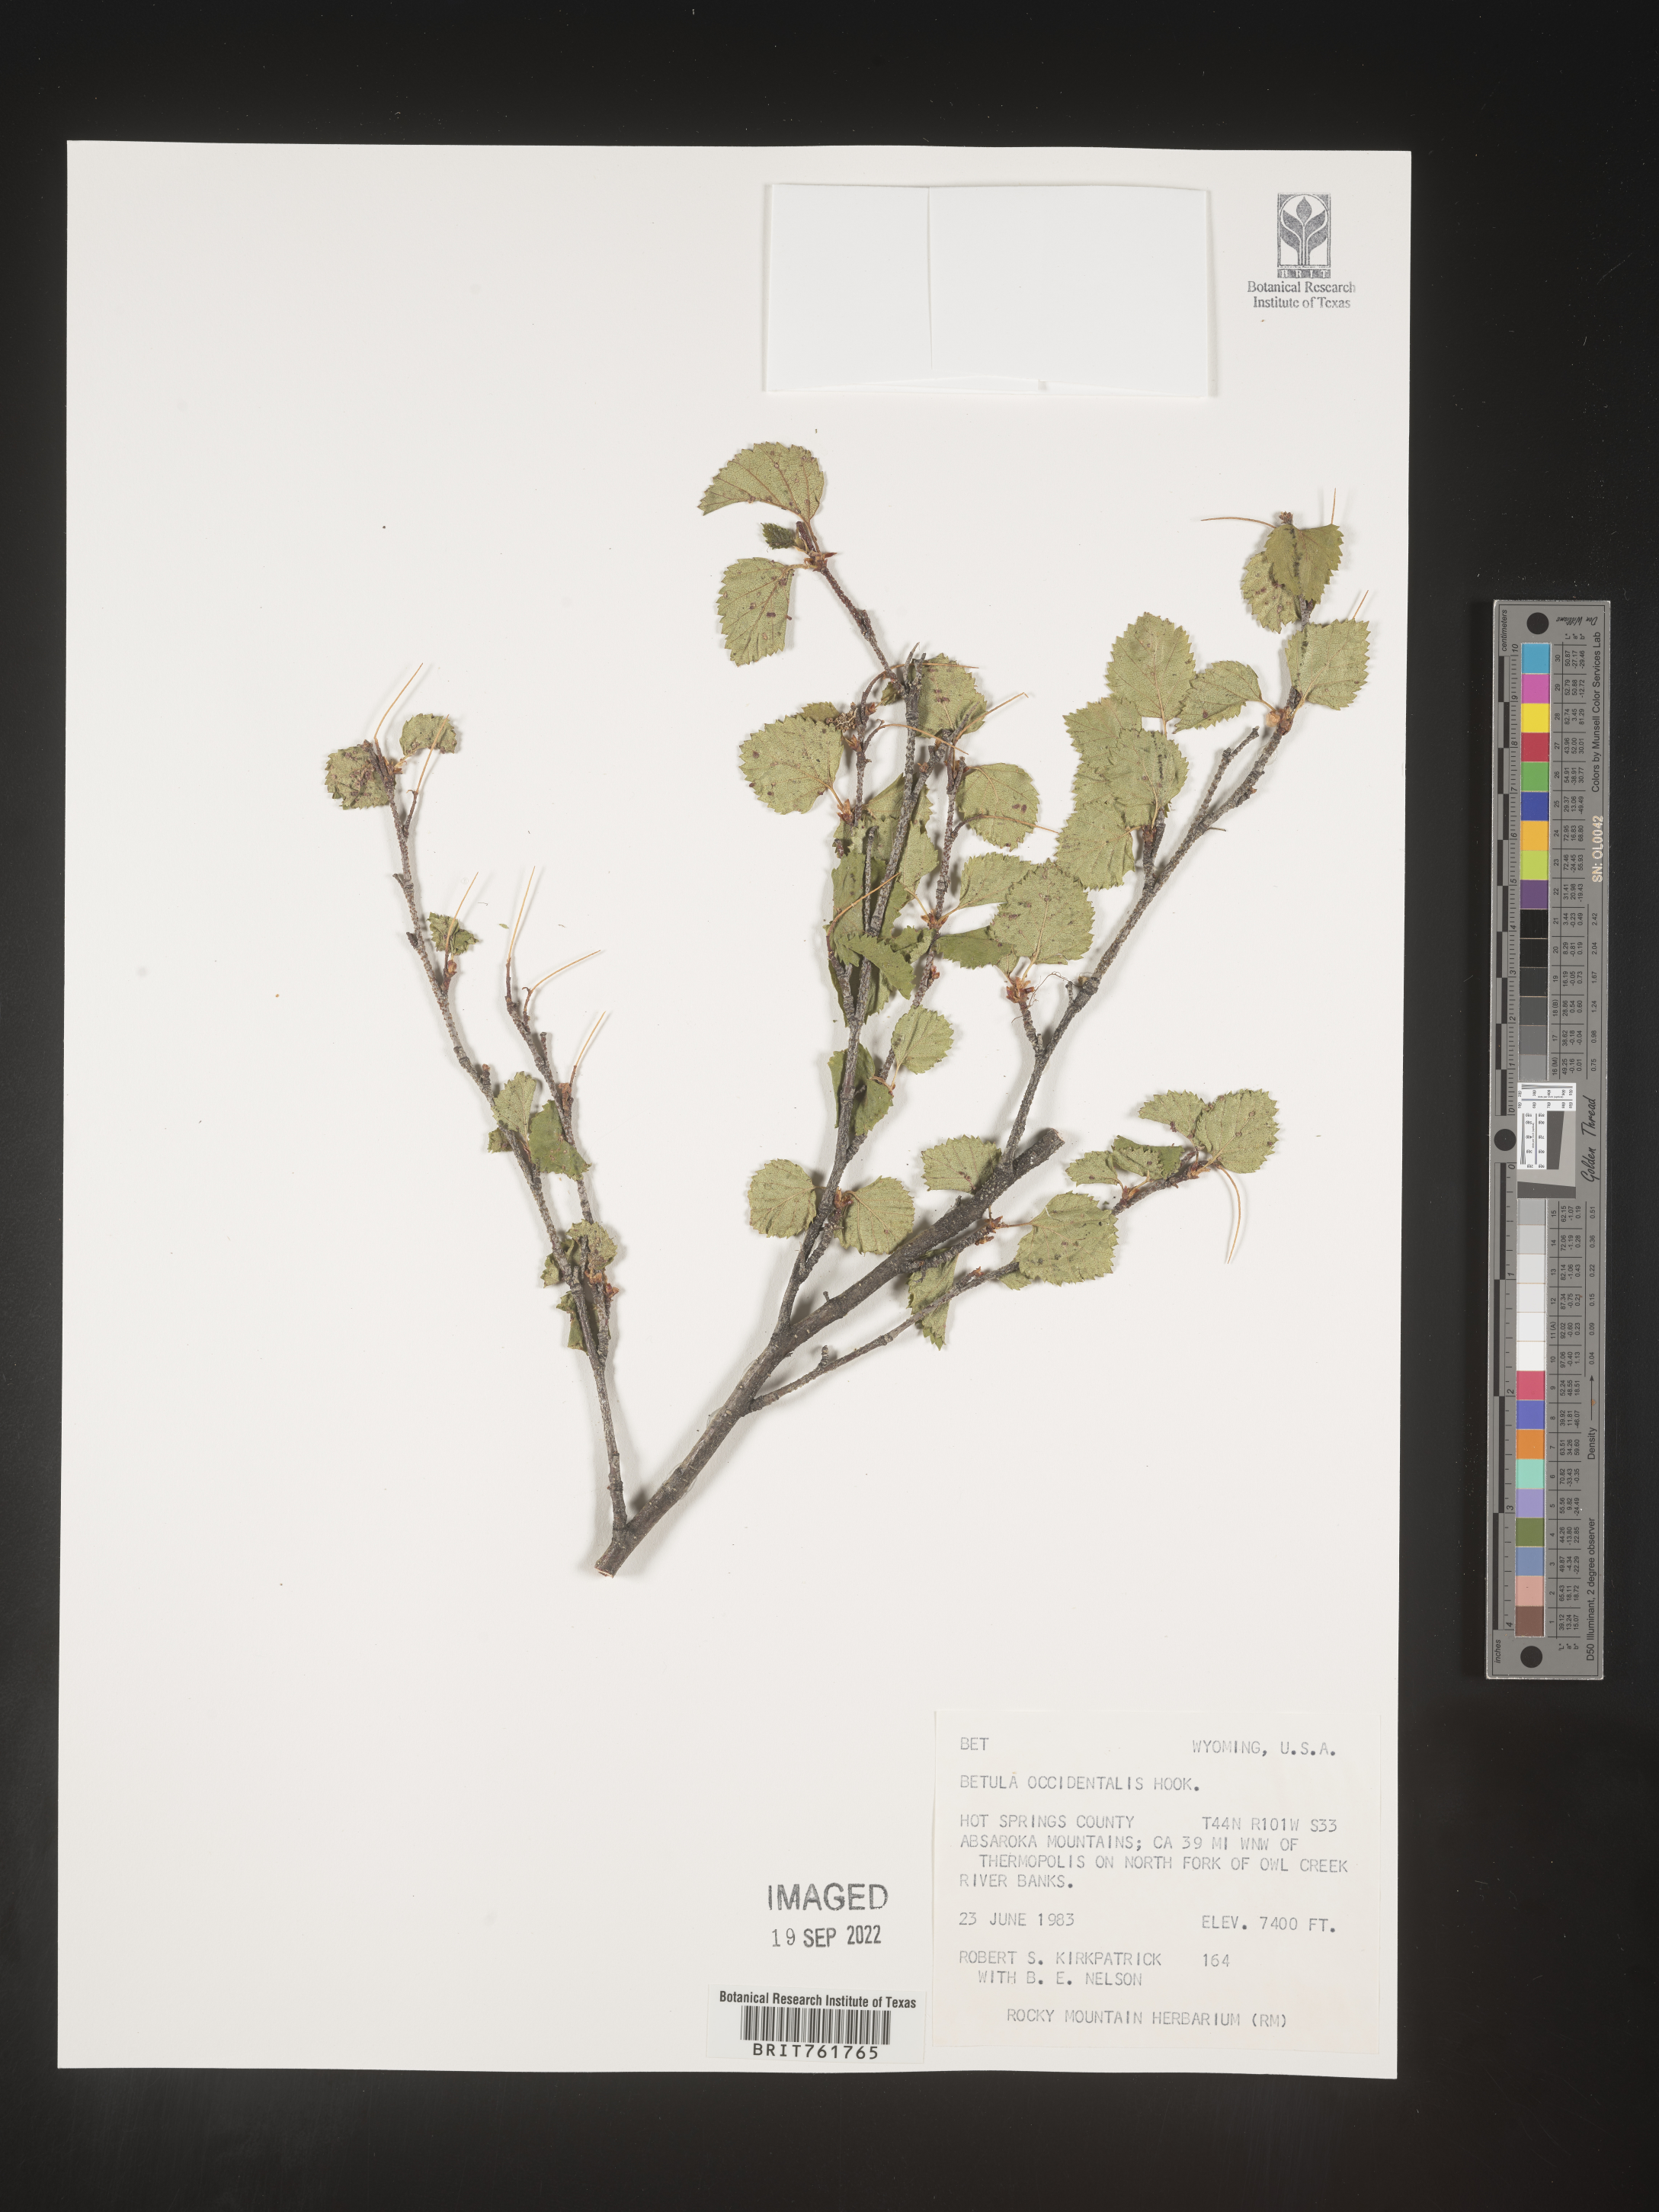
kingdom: Plantae
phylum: Tracheophyta
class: Magnoliopsida
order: Fagales
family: Betulaceae
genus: Betula
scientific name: Betula occidentalis
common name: River birch
